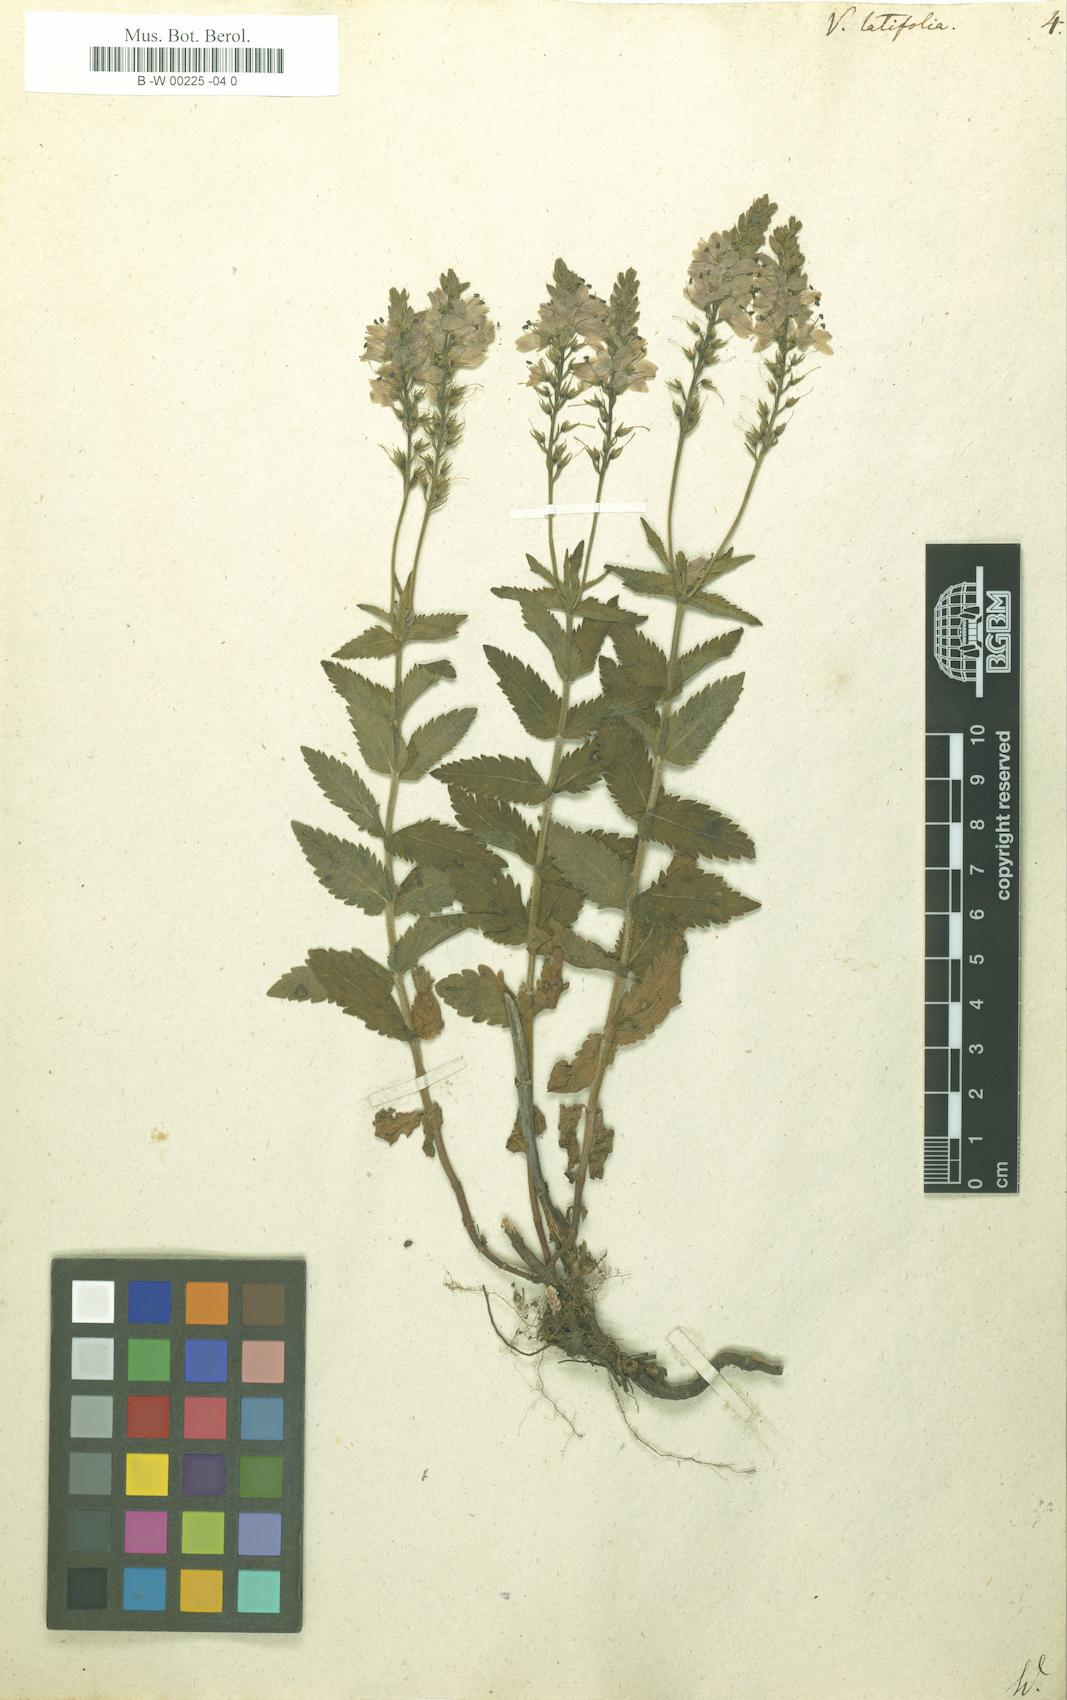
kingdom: Plantae
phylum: Tracheophyta
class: Magnoliopsida
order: Lamiales
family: Plantaginaceae
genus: Veronica
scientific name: Veronica latifolia
